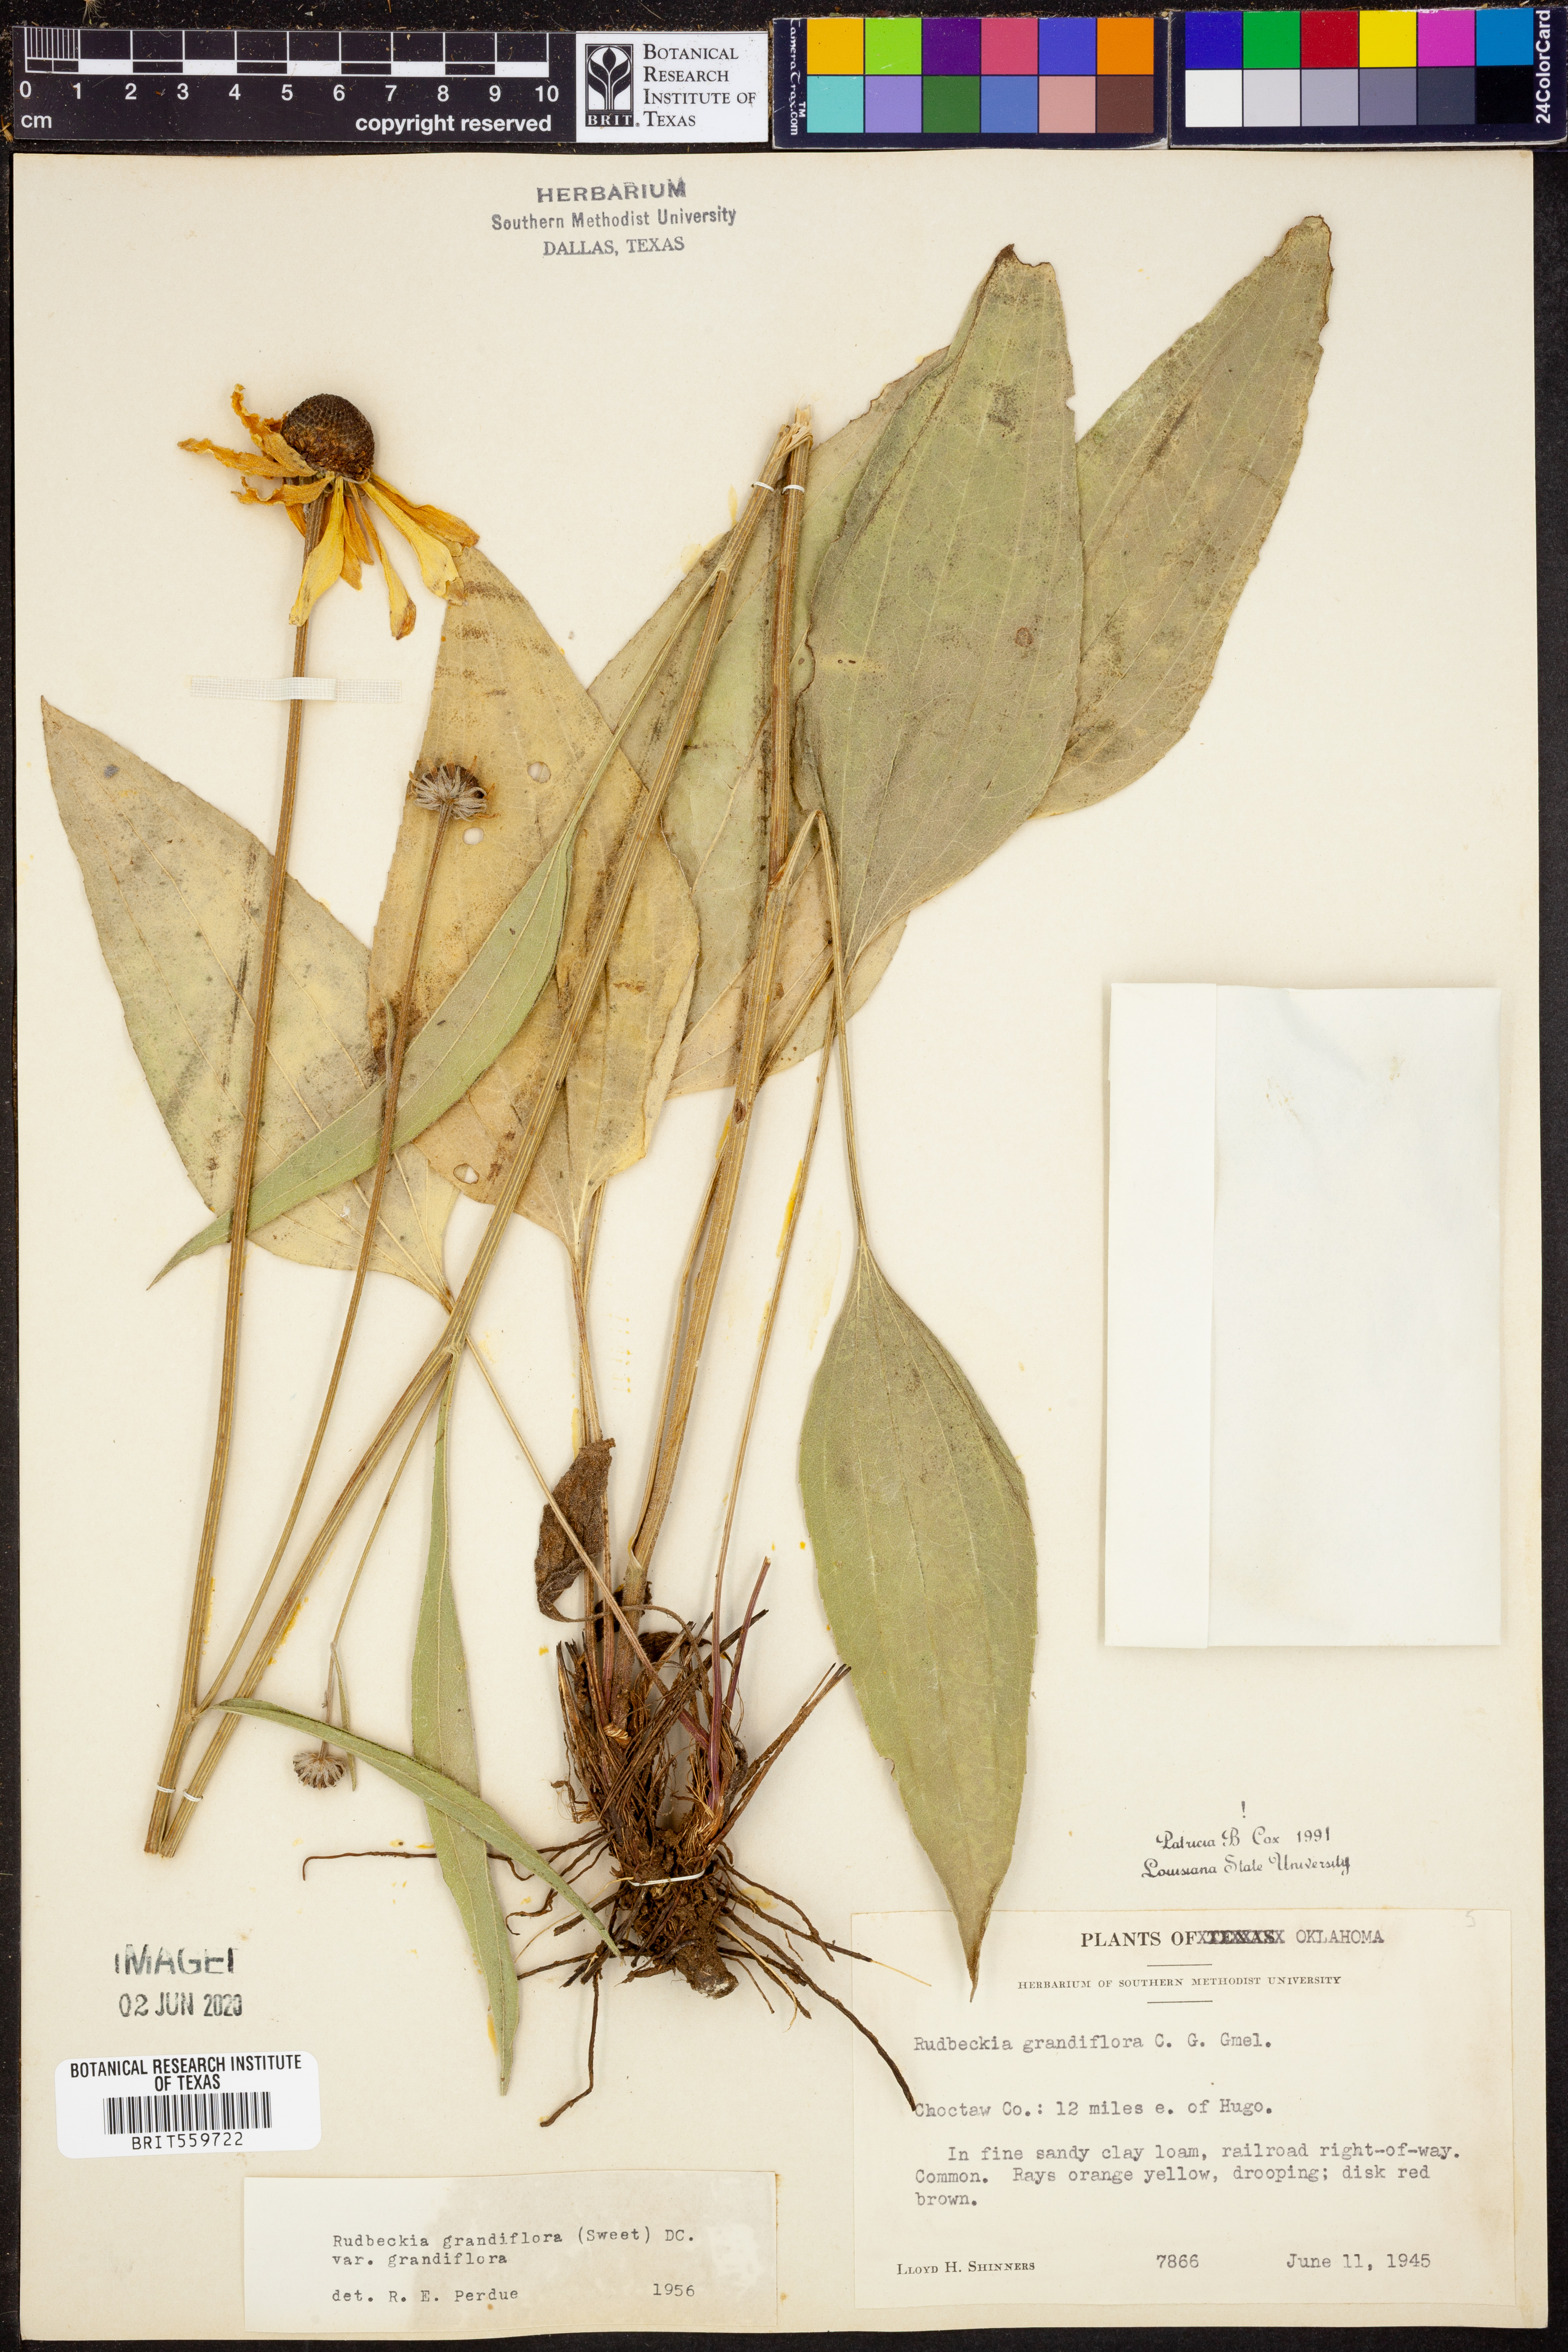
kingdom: Plantae
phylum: Tracheophyta
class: Magnoliopsida
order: Asterales
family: Asteraceae
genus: Rudbeckia
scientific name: Rudbeckia grandiflora
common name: Large-flowered coneflower
